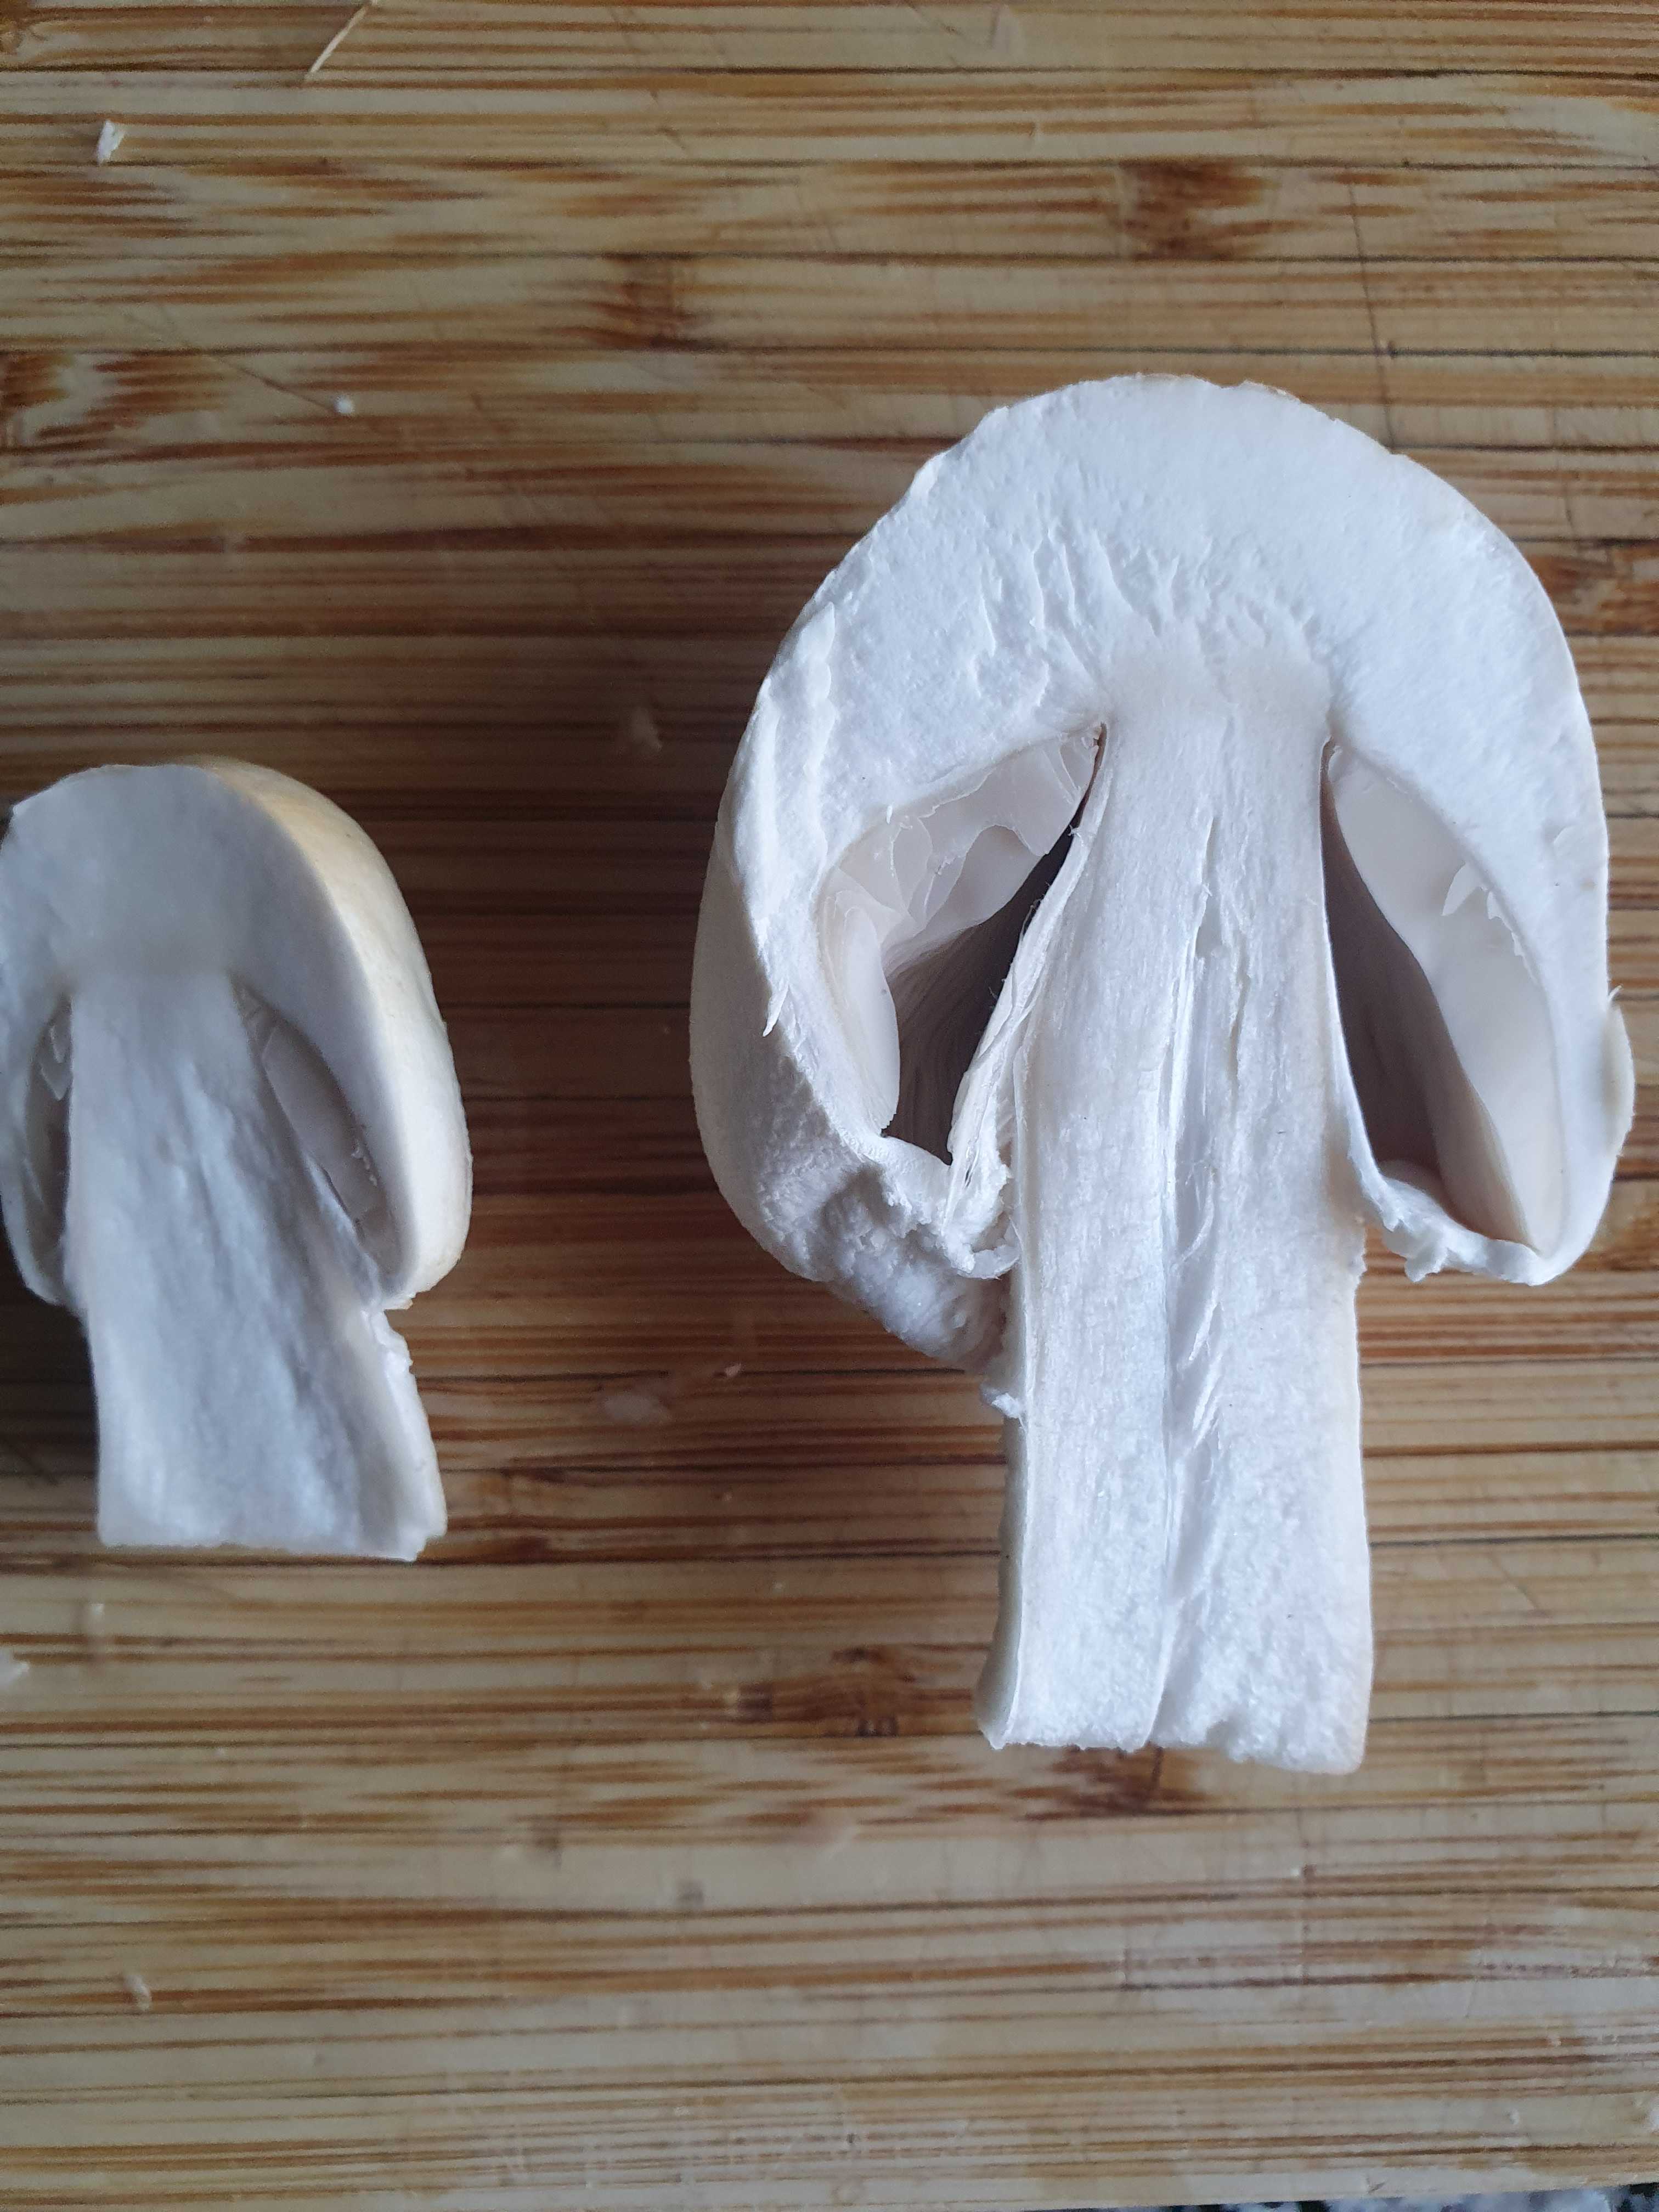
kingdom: Fungi
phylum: Basidiomycota
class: Agaricomycetes
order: Agaricales
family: Agaricaceae
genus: Agaricus
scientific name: Agaricus
